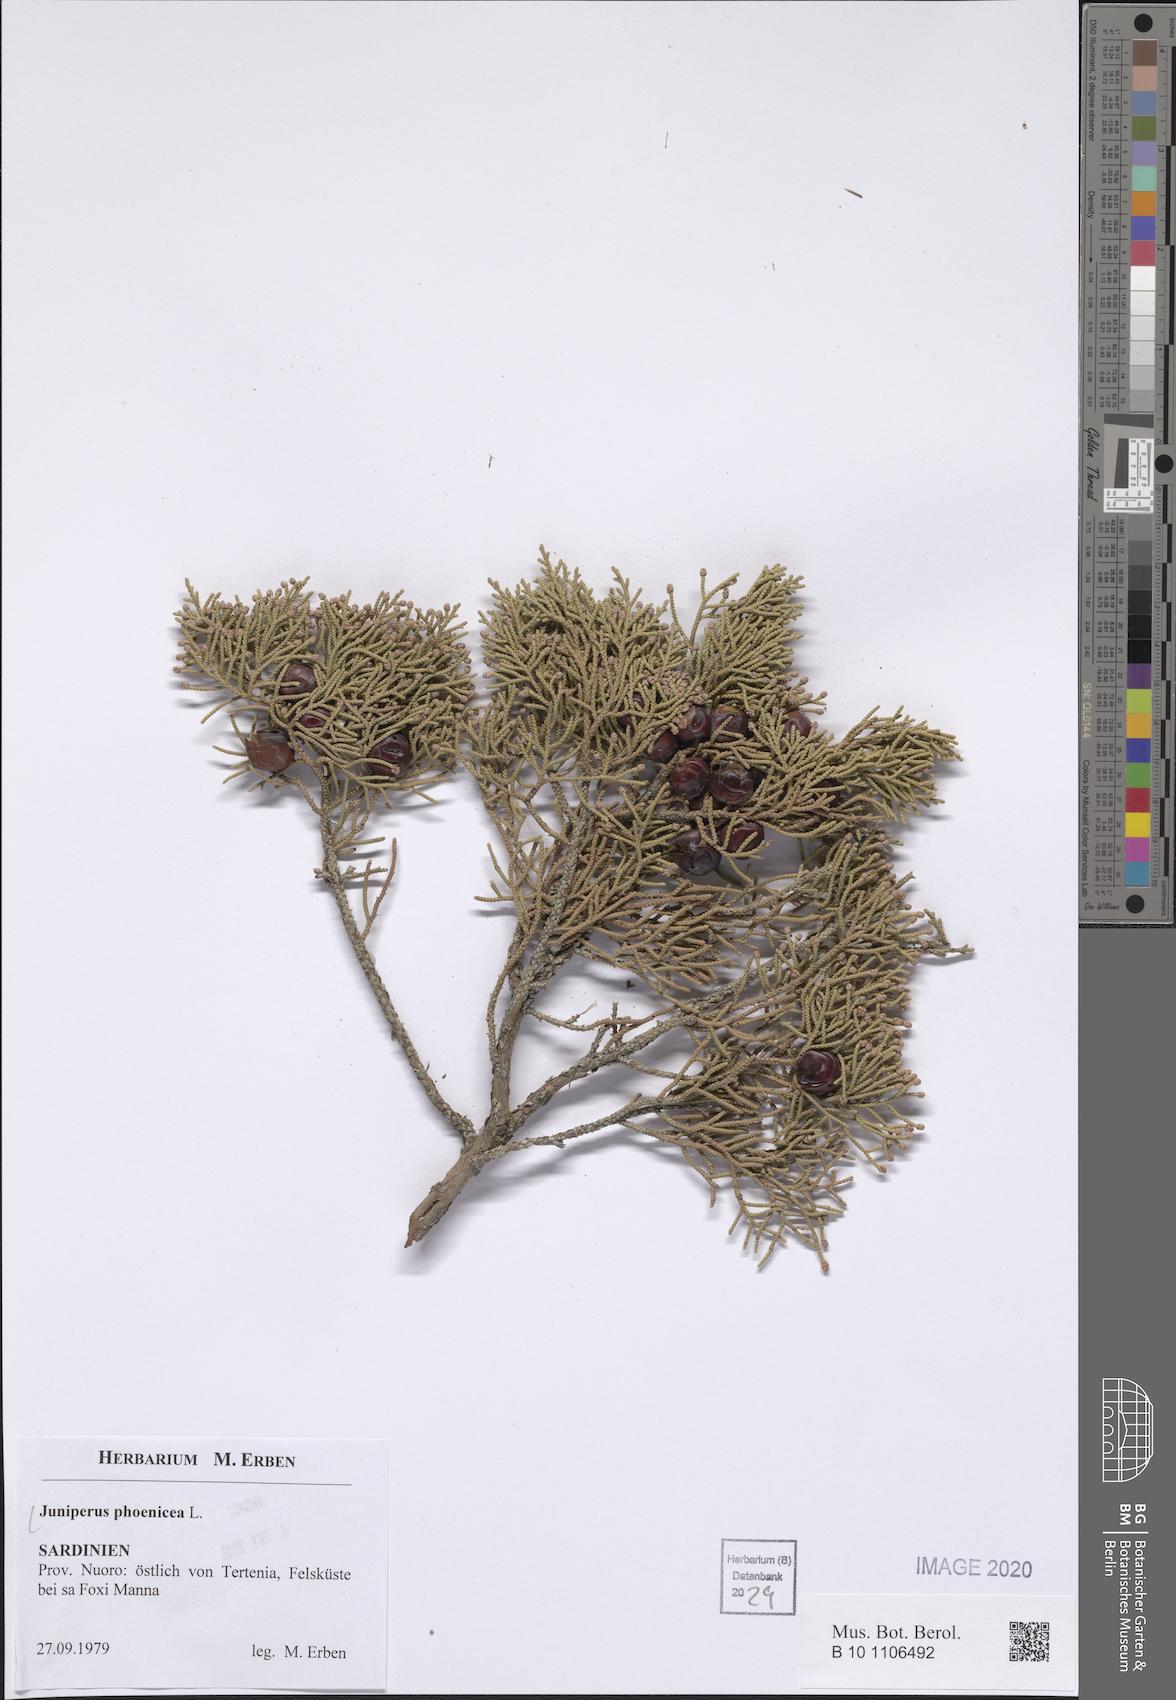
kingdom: Plantae
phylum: Tracheophyta
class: Pinopsida
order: Pinales
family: Cupressaceae
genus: Juniperus
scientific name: Juniperus phoenicea
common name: Phoenician juniper
